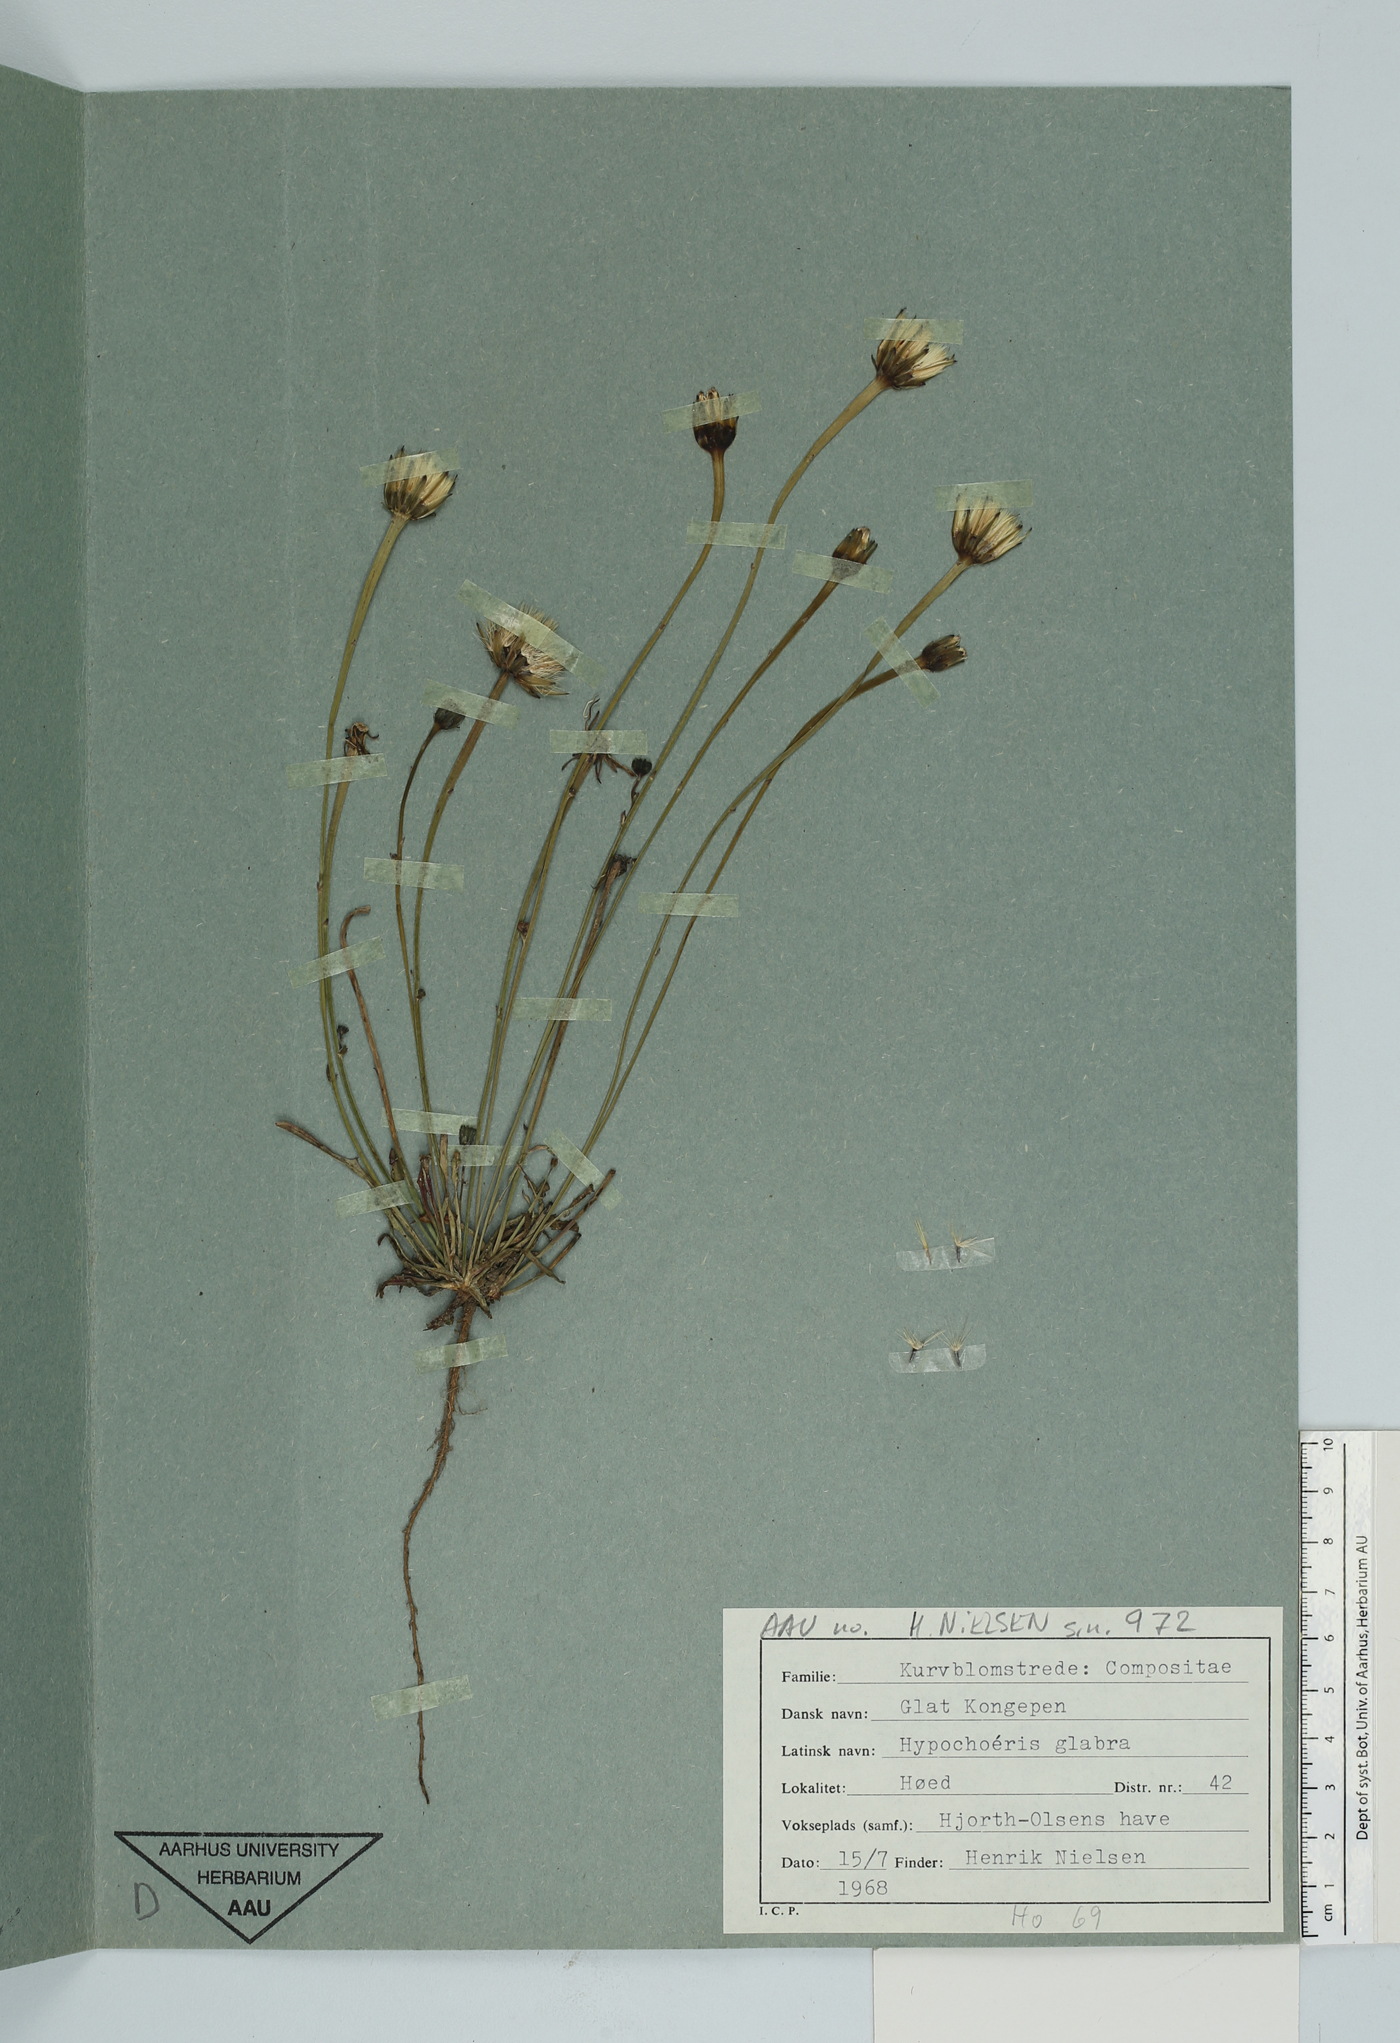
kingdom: Plantae
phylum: Tracheophyta
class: Magnoliopsida
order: Asterales
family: Asteraceae
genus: Hypochoeris
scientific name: Hypochoeris glabra
